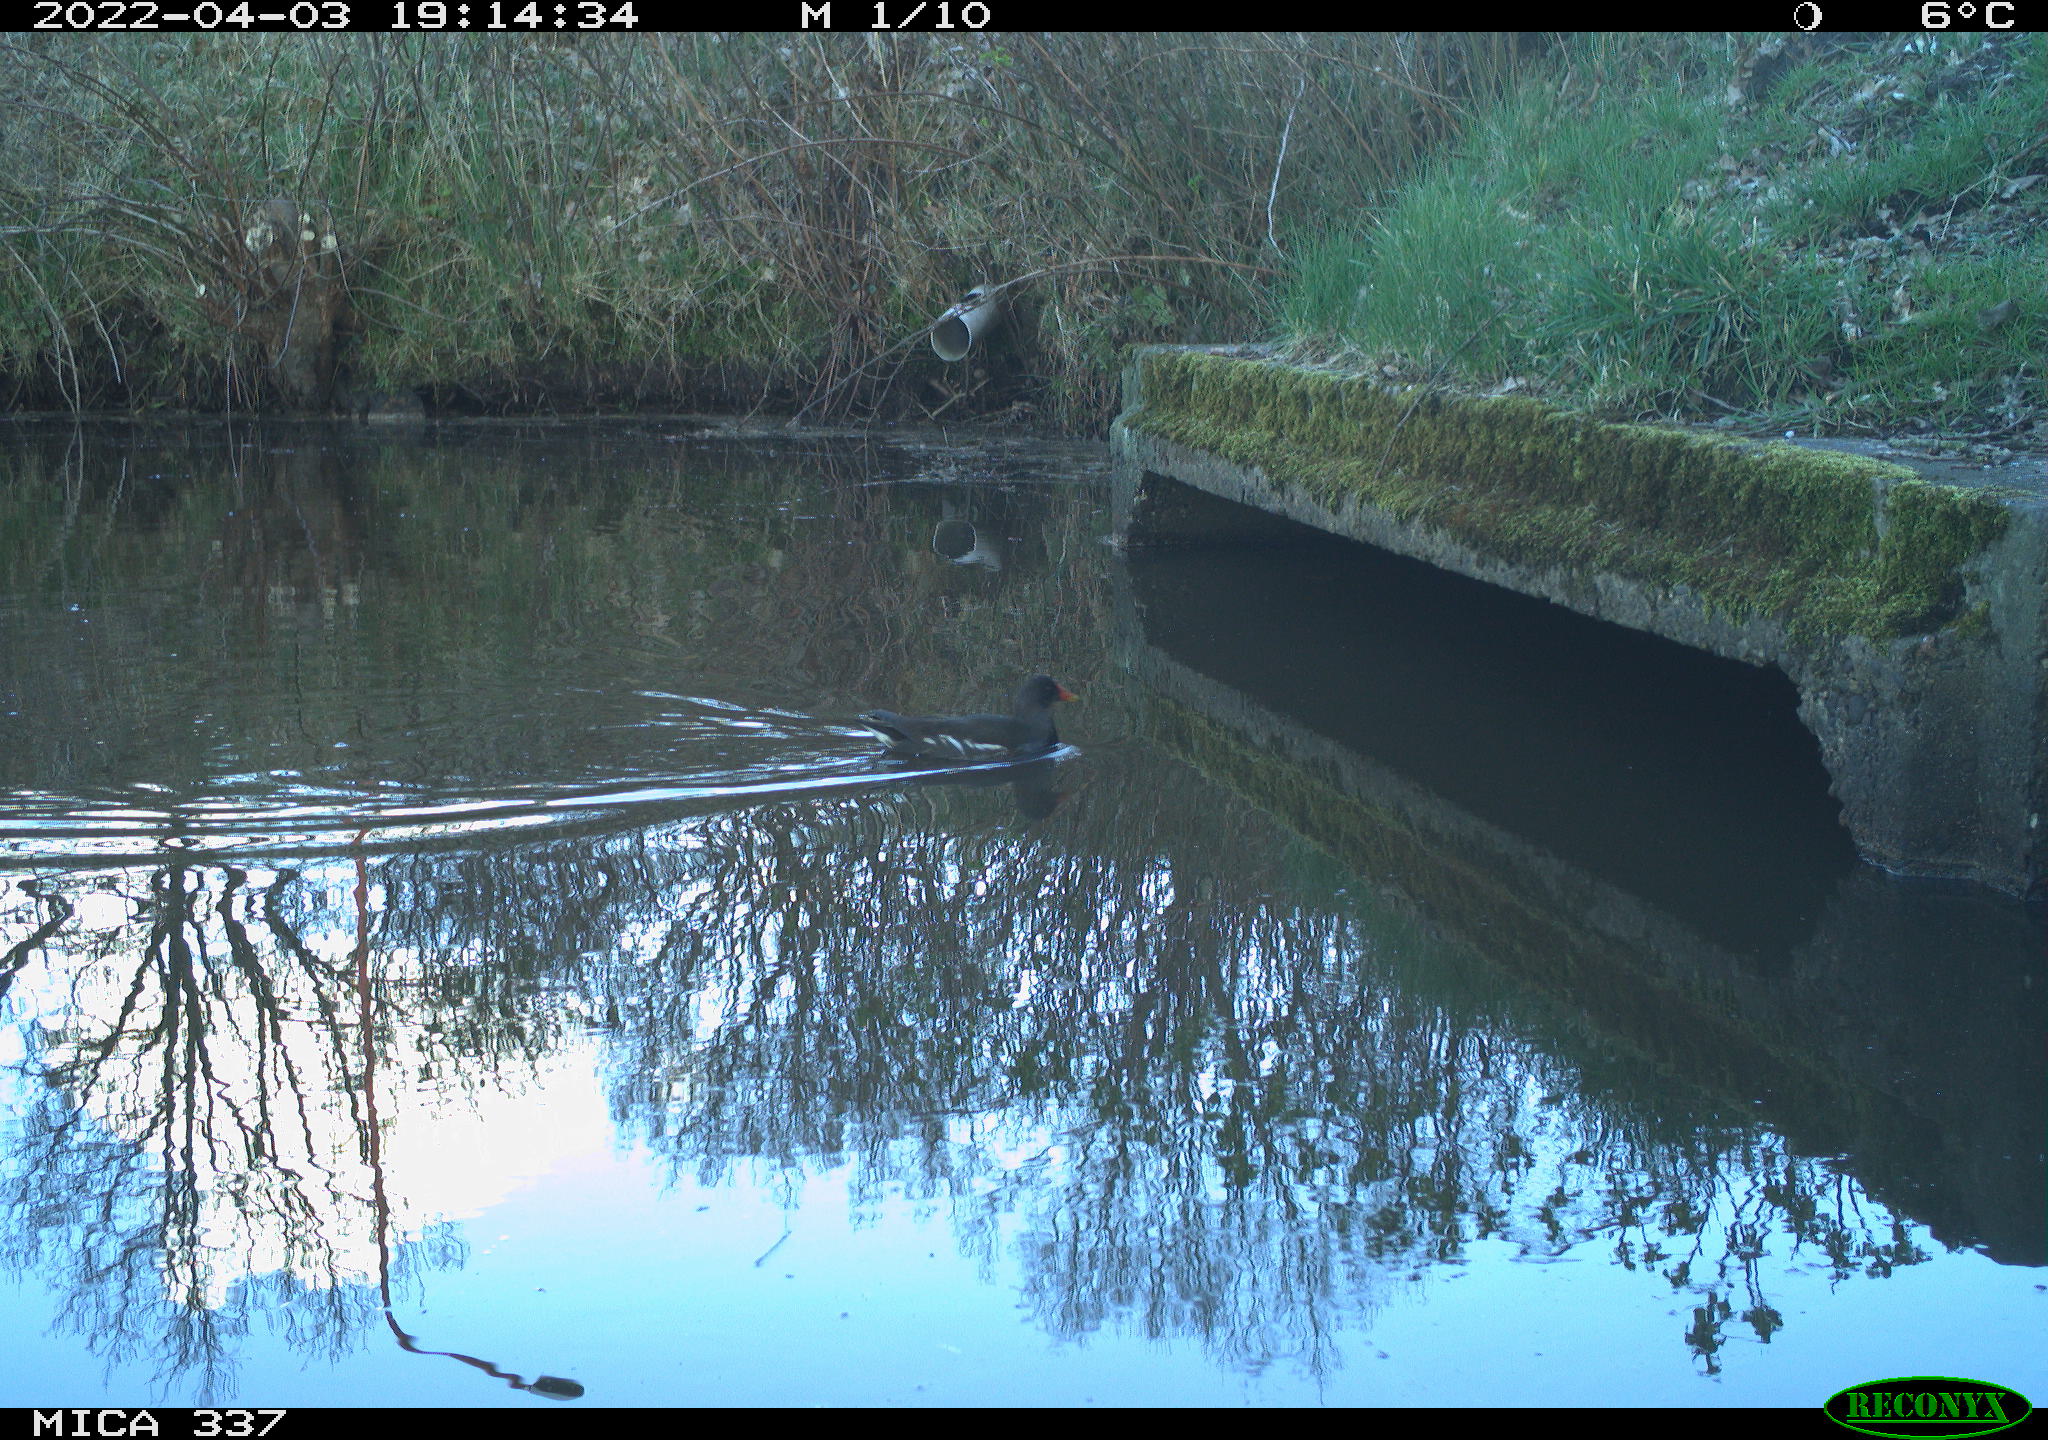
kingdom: Animalia
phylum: Chordata
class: Aves
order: Gruiformes
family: Rallidae
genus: Gallinula
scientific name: Gallinula chloropus
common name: Common moorhen
